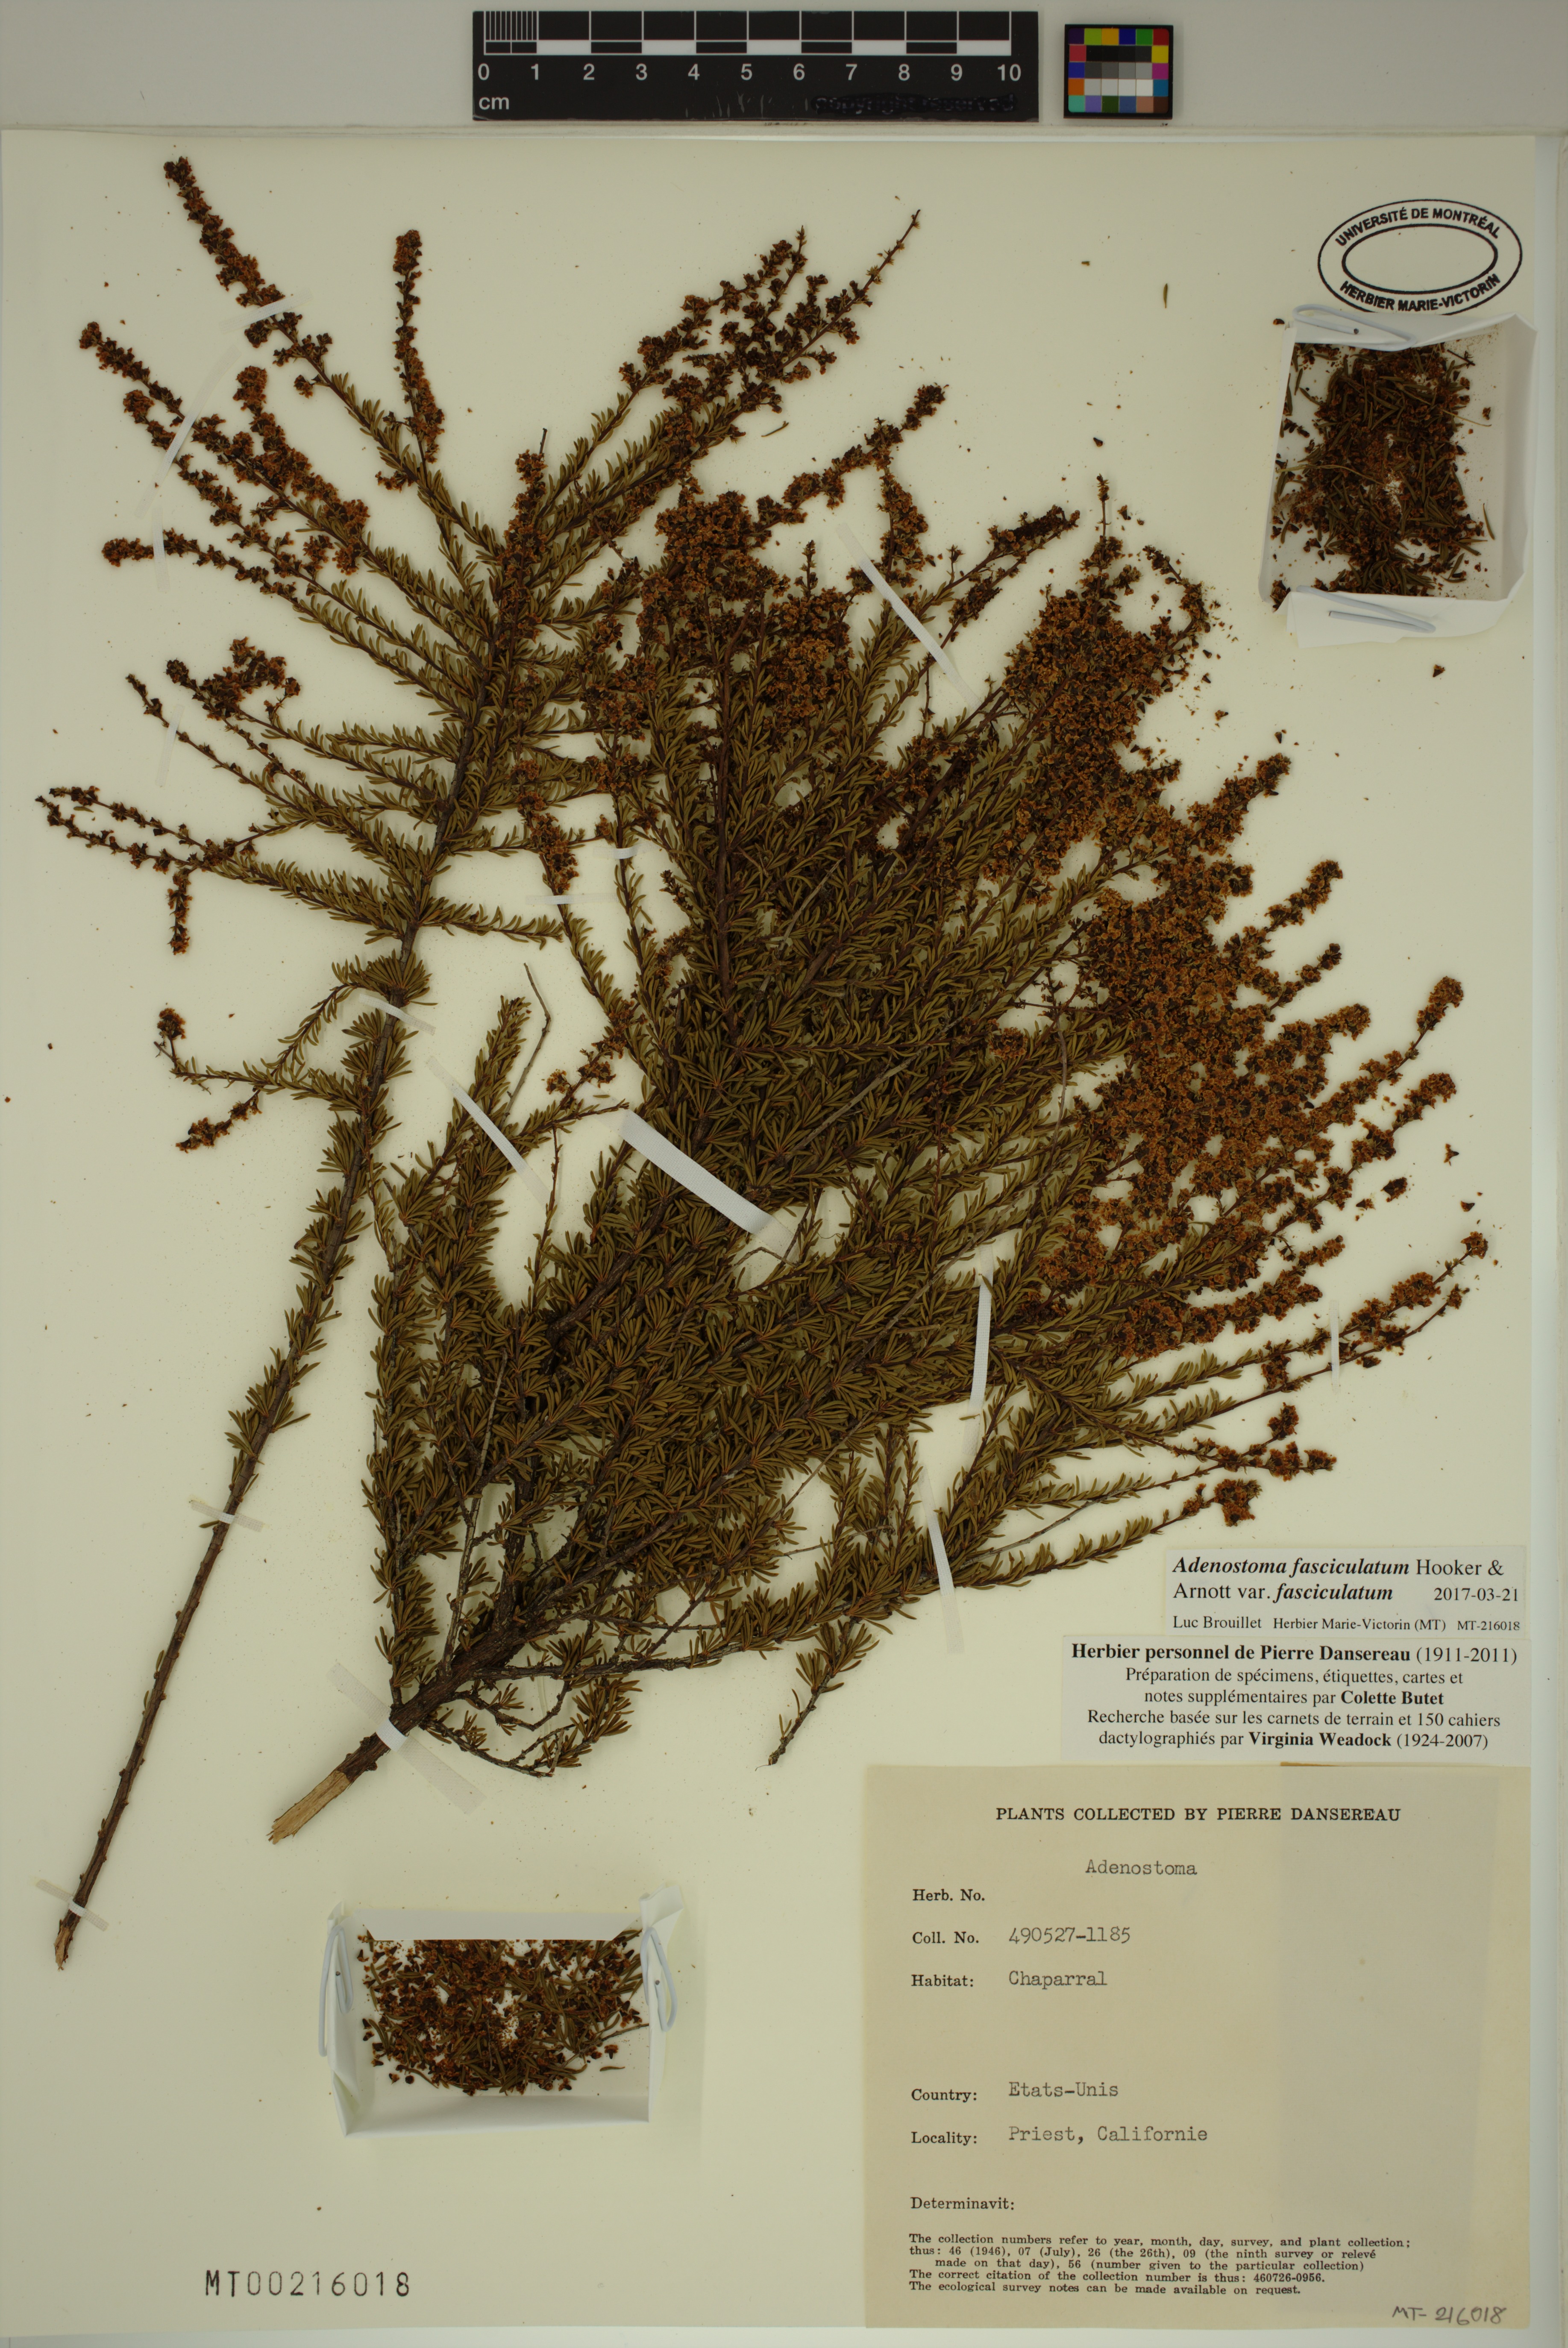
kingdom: Plantae
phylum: Tracheophyta
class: Magnoliopsida
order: Rosales
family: Rosaceae
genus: Adenostoma
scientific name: Adenostoma fasciculatum
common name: Chamise
